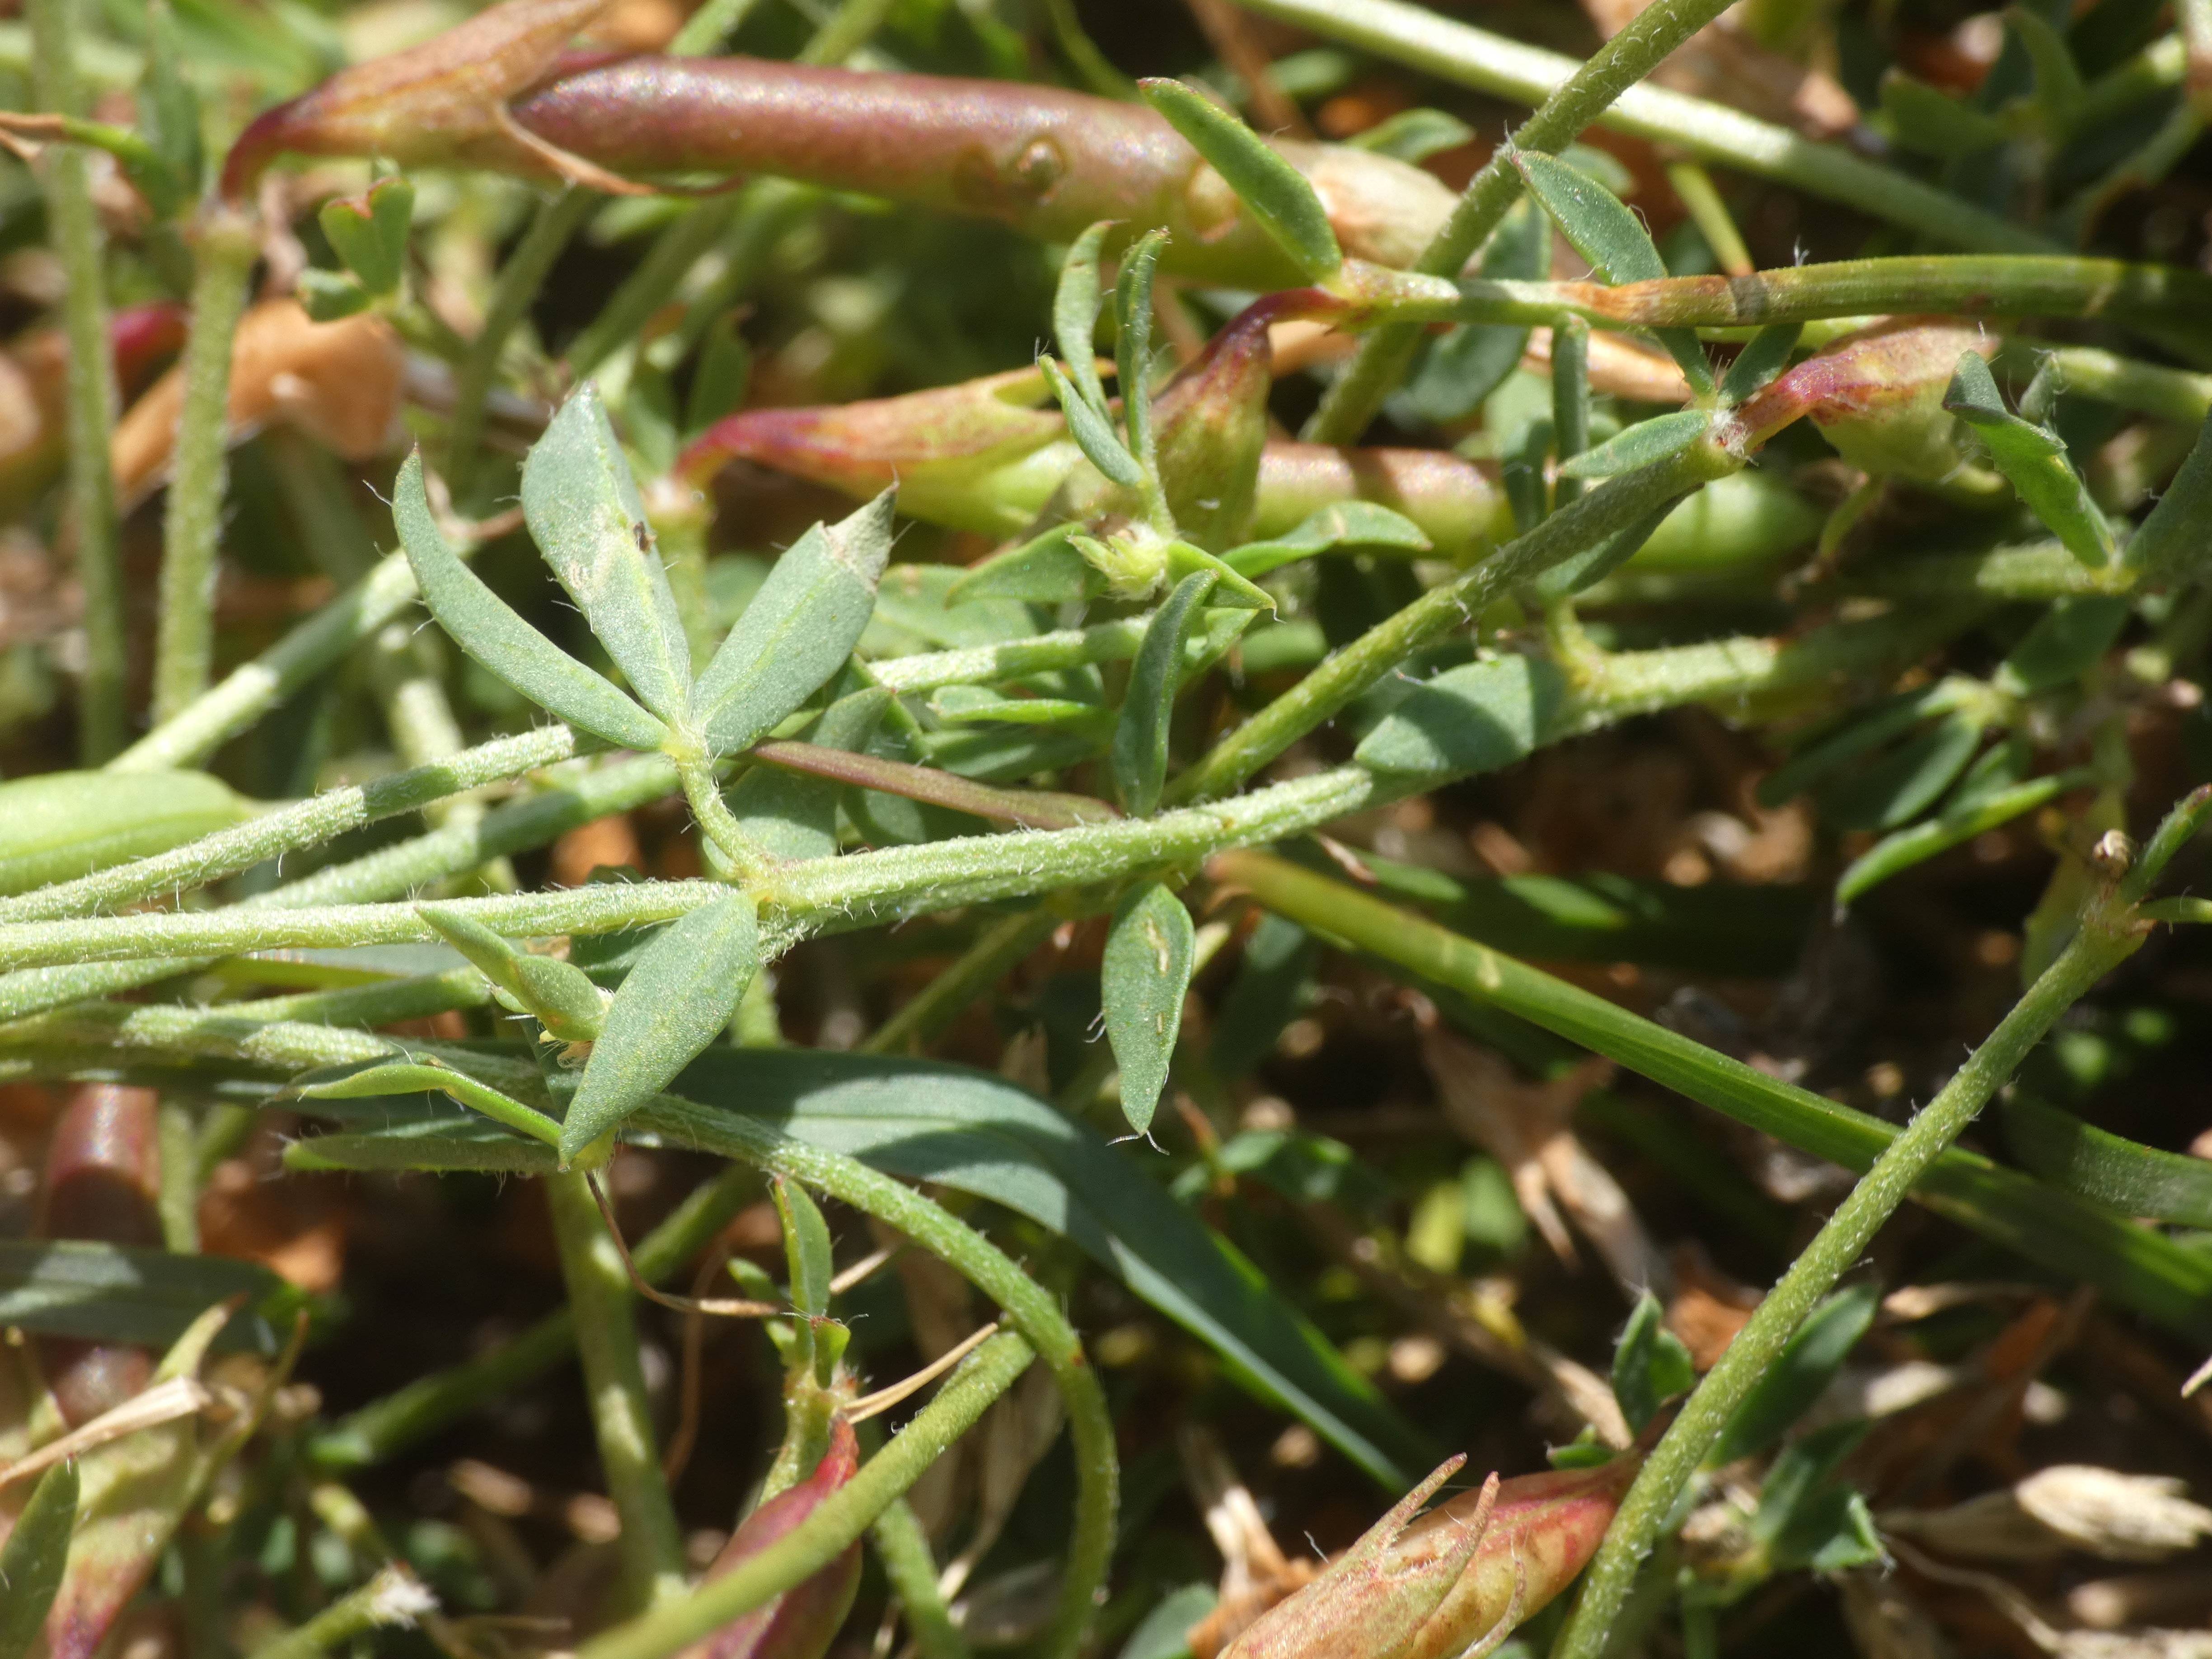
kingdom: Plantae
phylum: Tracheophyta
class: Magnoliopsida
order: Fabales
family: Fabaceae
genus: Lotus
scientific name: Lotus corniculatus
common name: Almindelig kællingetand
